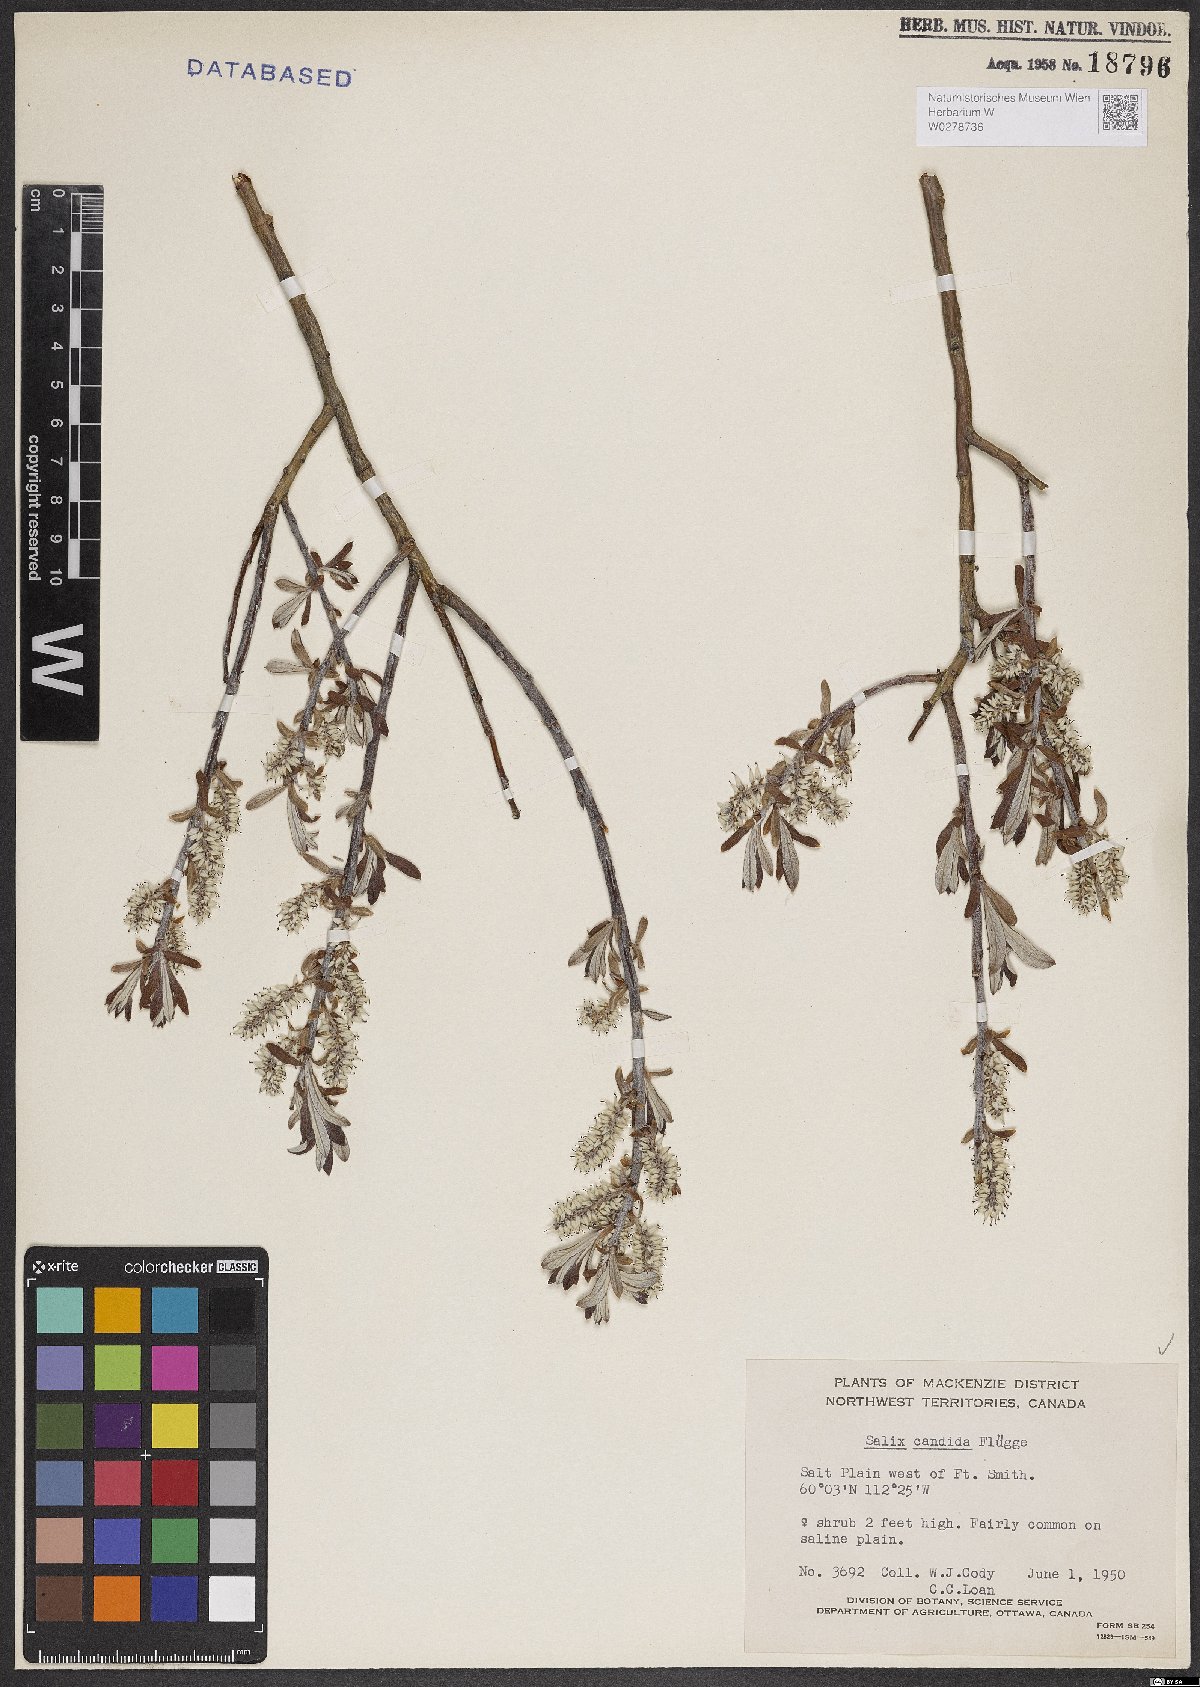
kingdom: Plantae
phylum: Tracheophyta
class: Magnoliopsida
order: Malpighiales
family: Salicaceae
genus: Salix
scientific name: Salix candida
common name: Hoary willow
